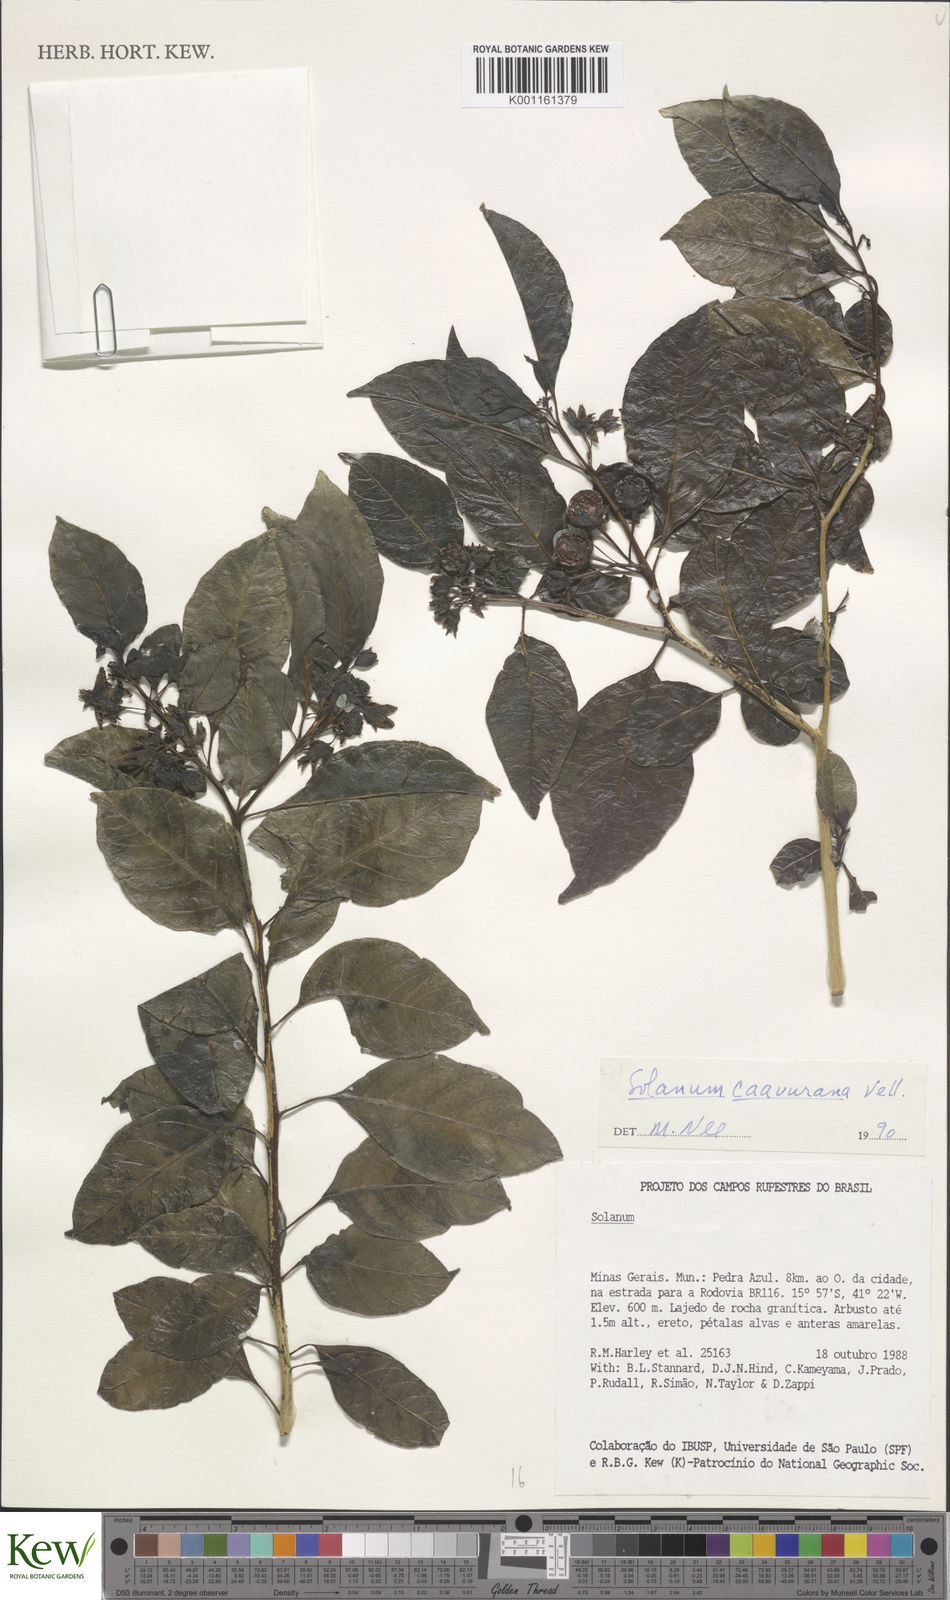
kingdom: Plantae
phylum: Tracheophyta
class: Magnoliopsida
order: Solanales
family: Solanaceae
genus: Solanum
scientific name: Solanum caavurana
